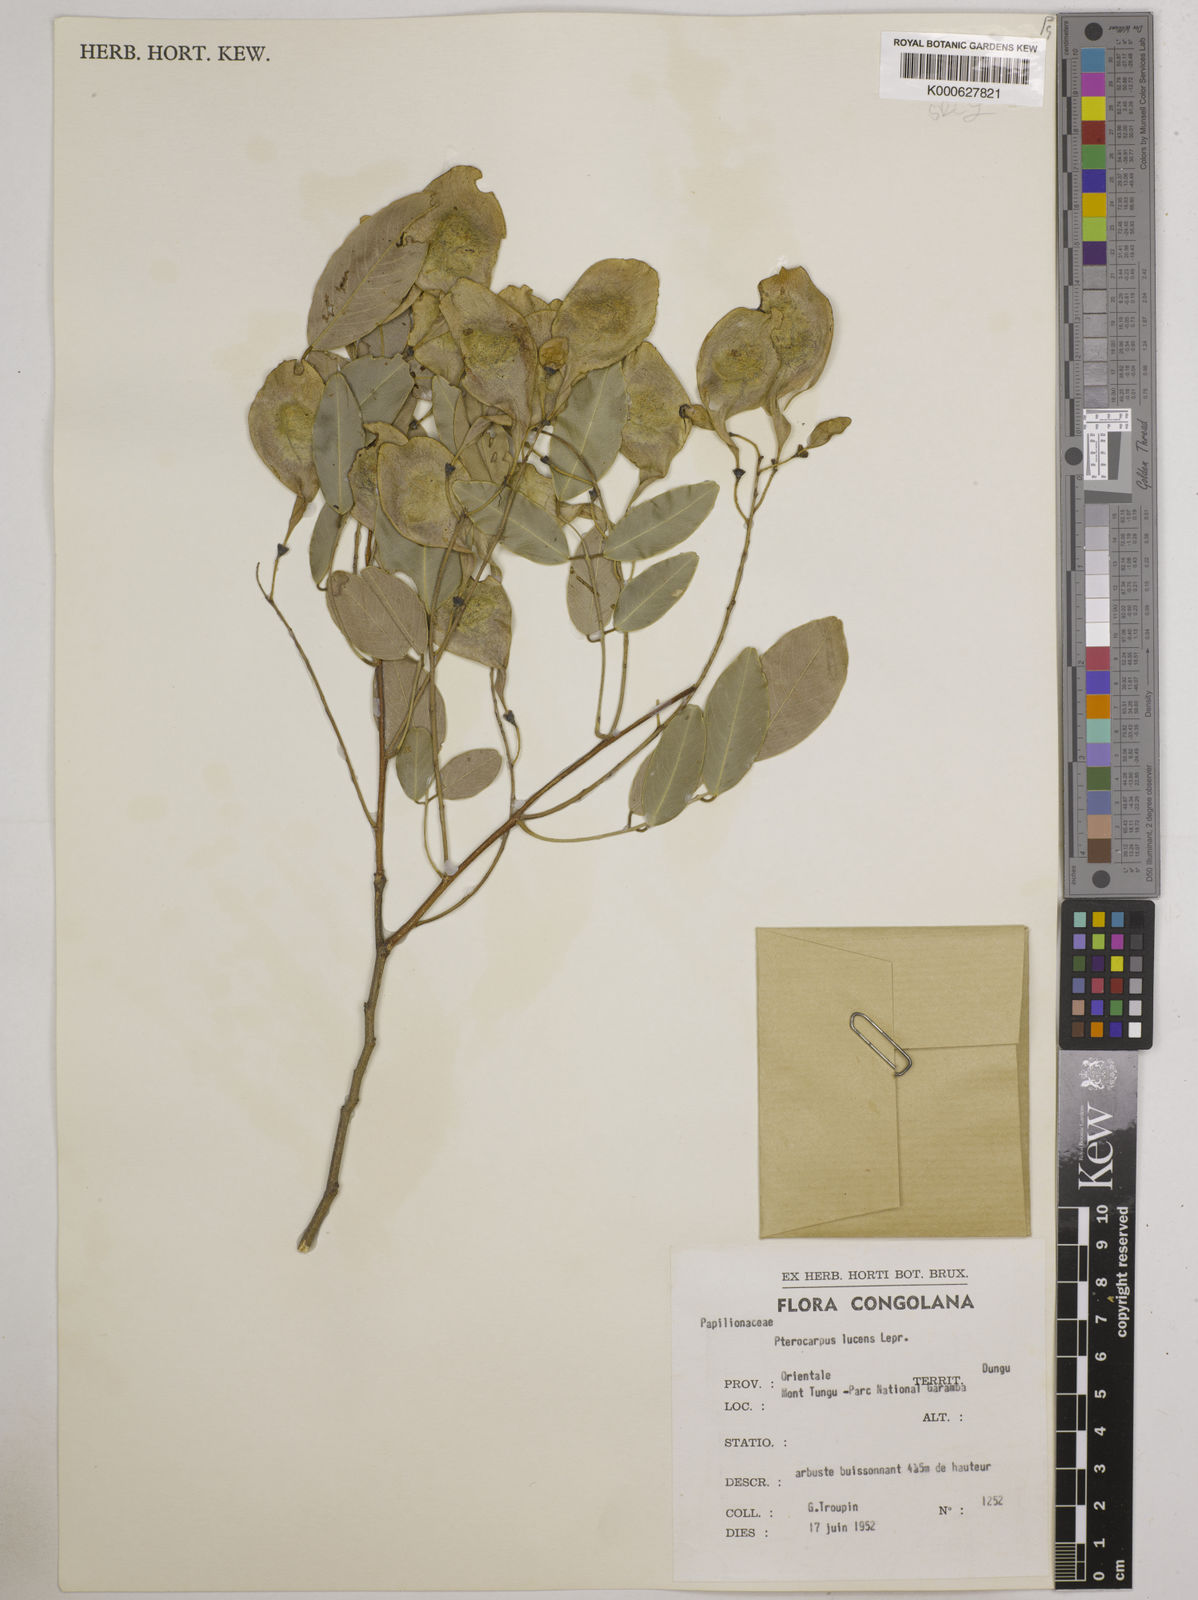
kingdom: Plantae
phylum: Tracheophyta
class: Magnoliopsida
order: Fabales
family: Fabaceae
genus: Pterocarpus
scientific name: Pterocarpus lucens
